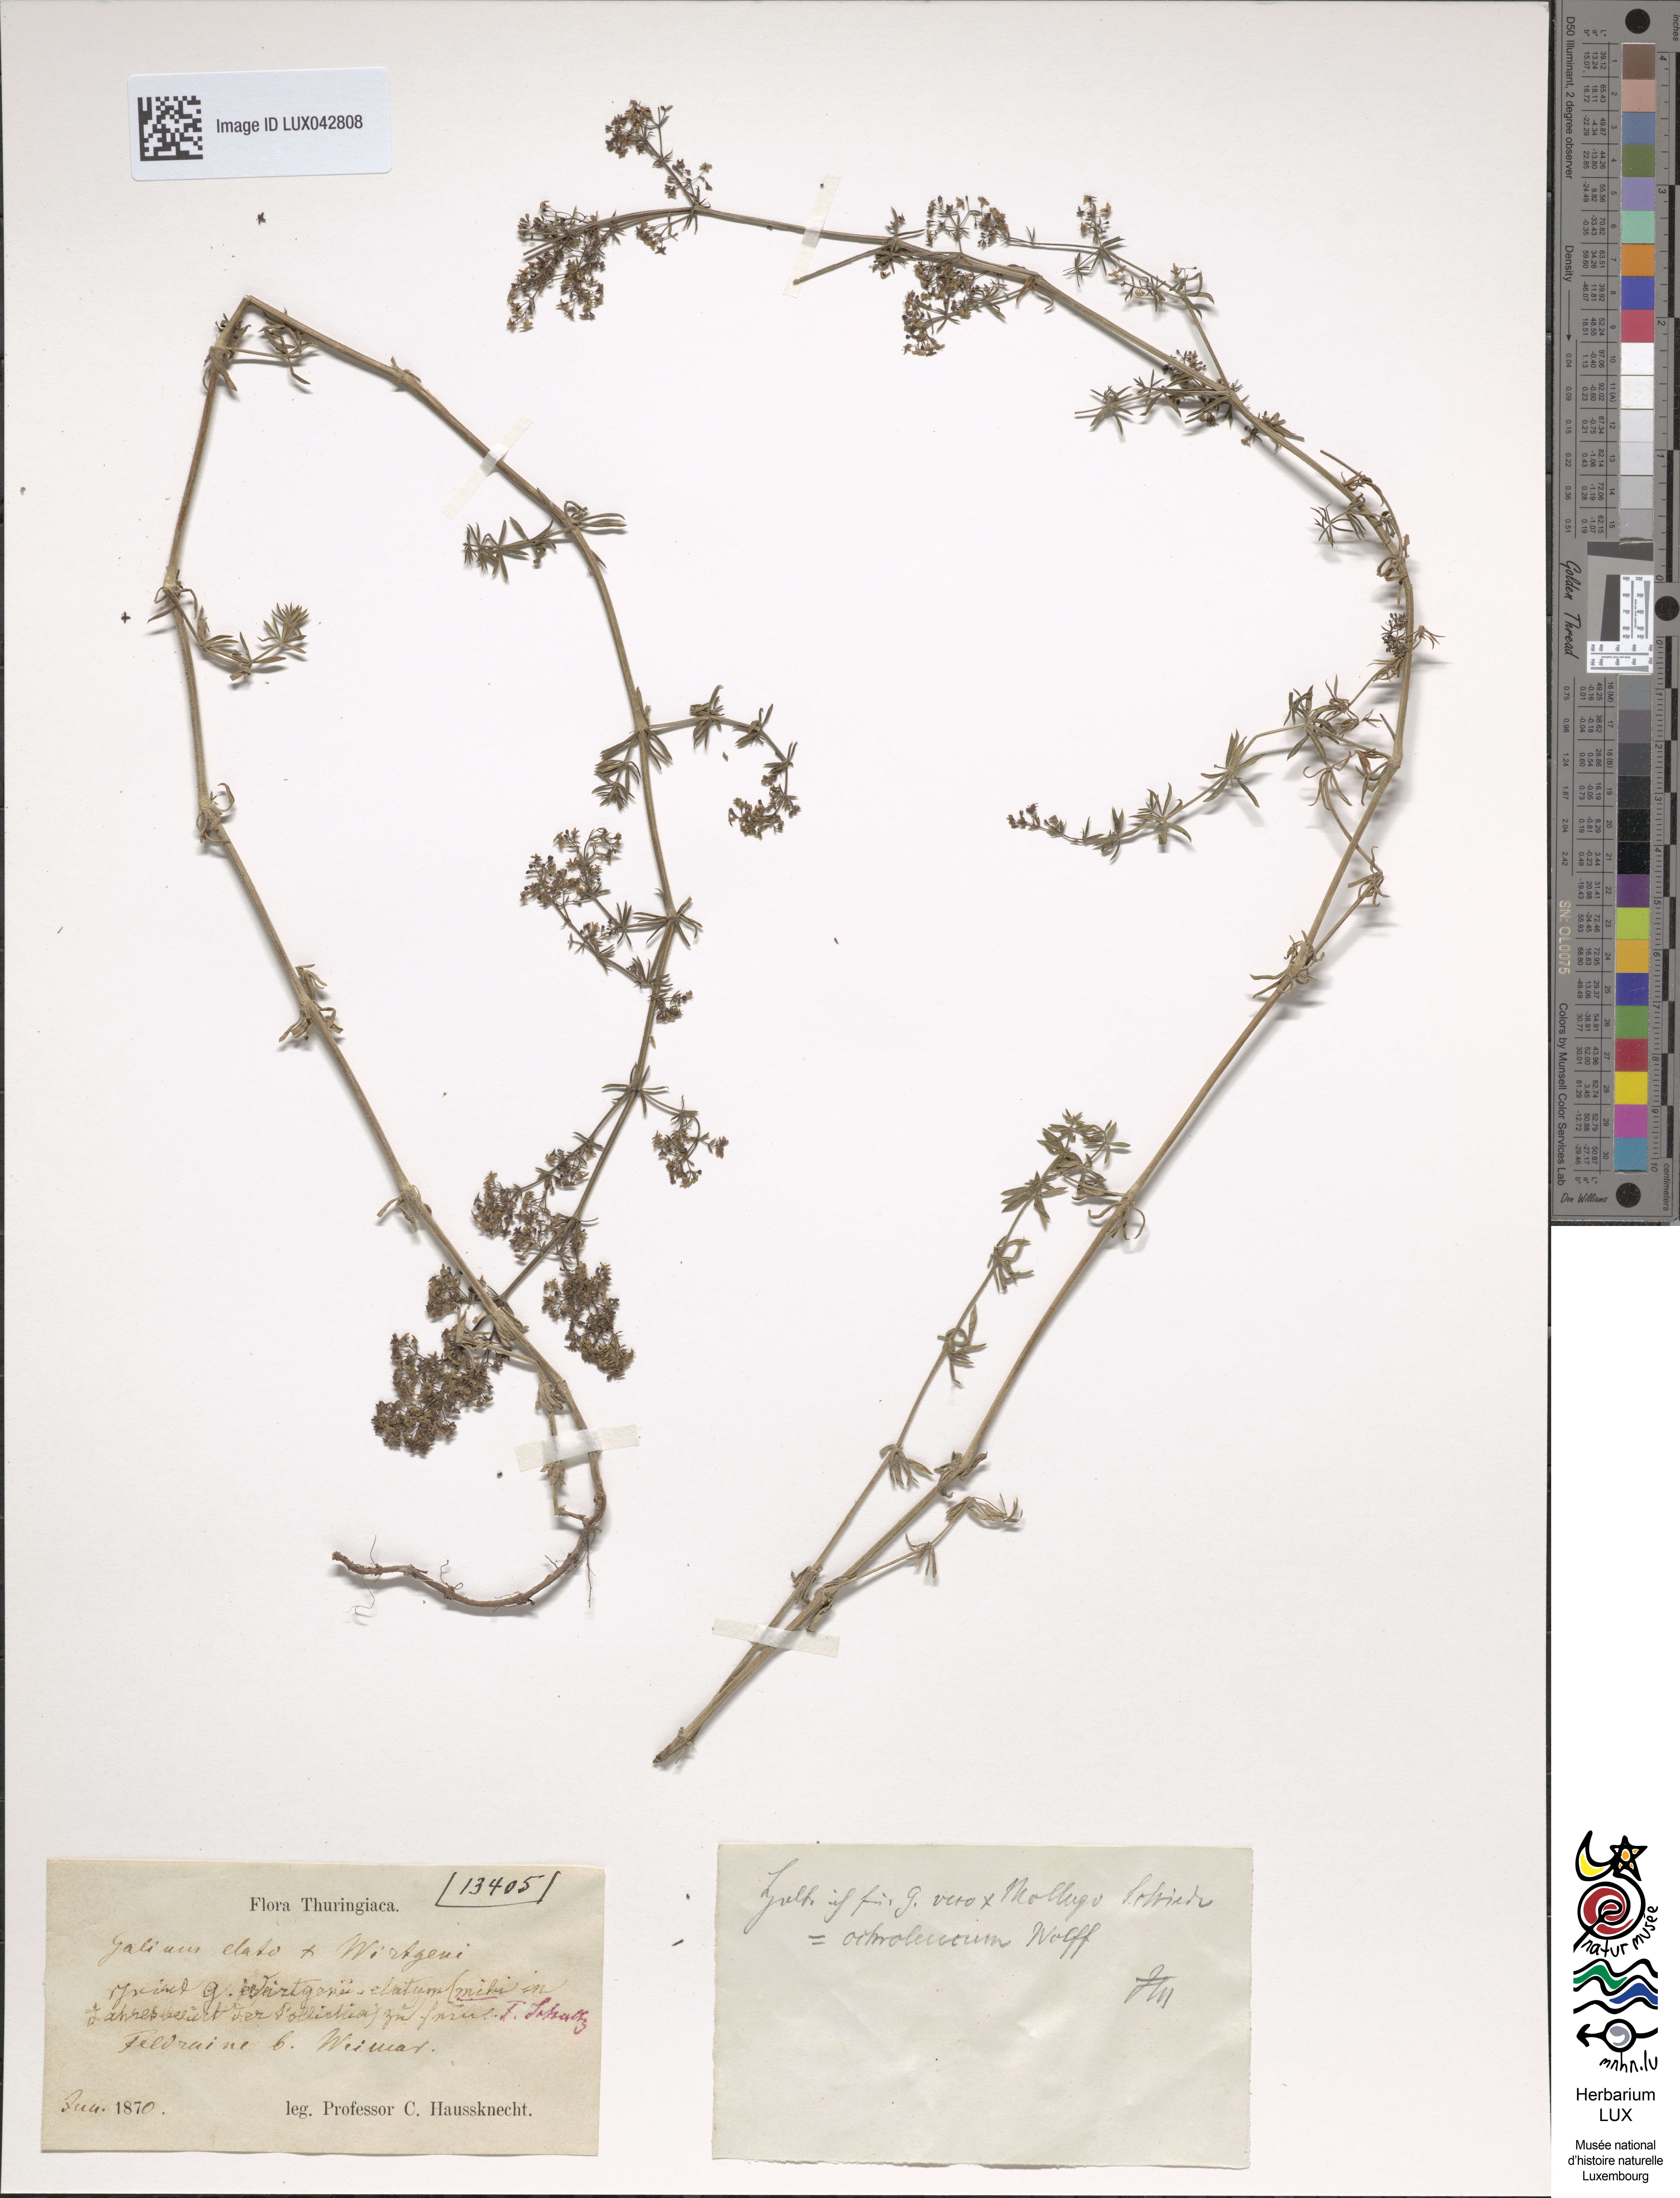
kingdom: Plantae
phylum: Tracheophyta
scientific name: Tracheophyta
